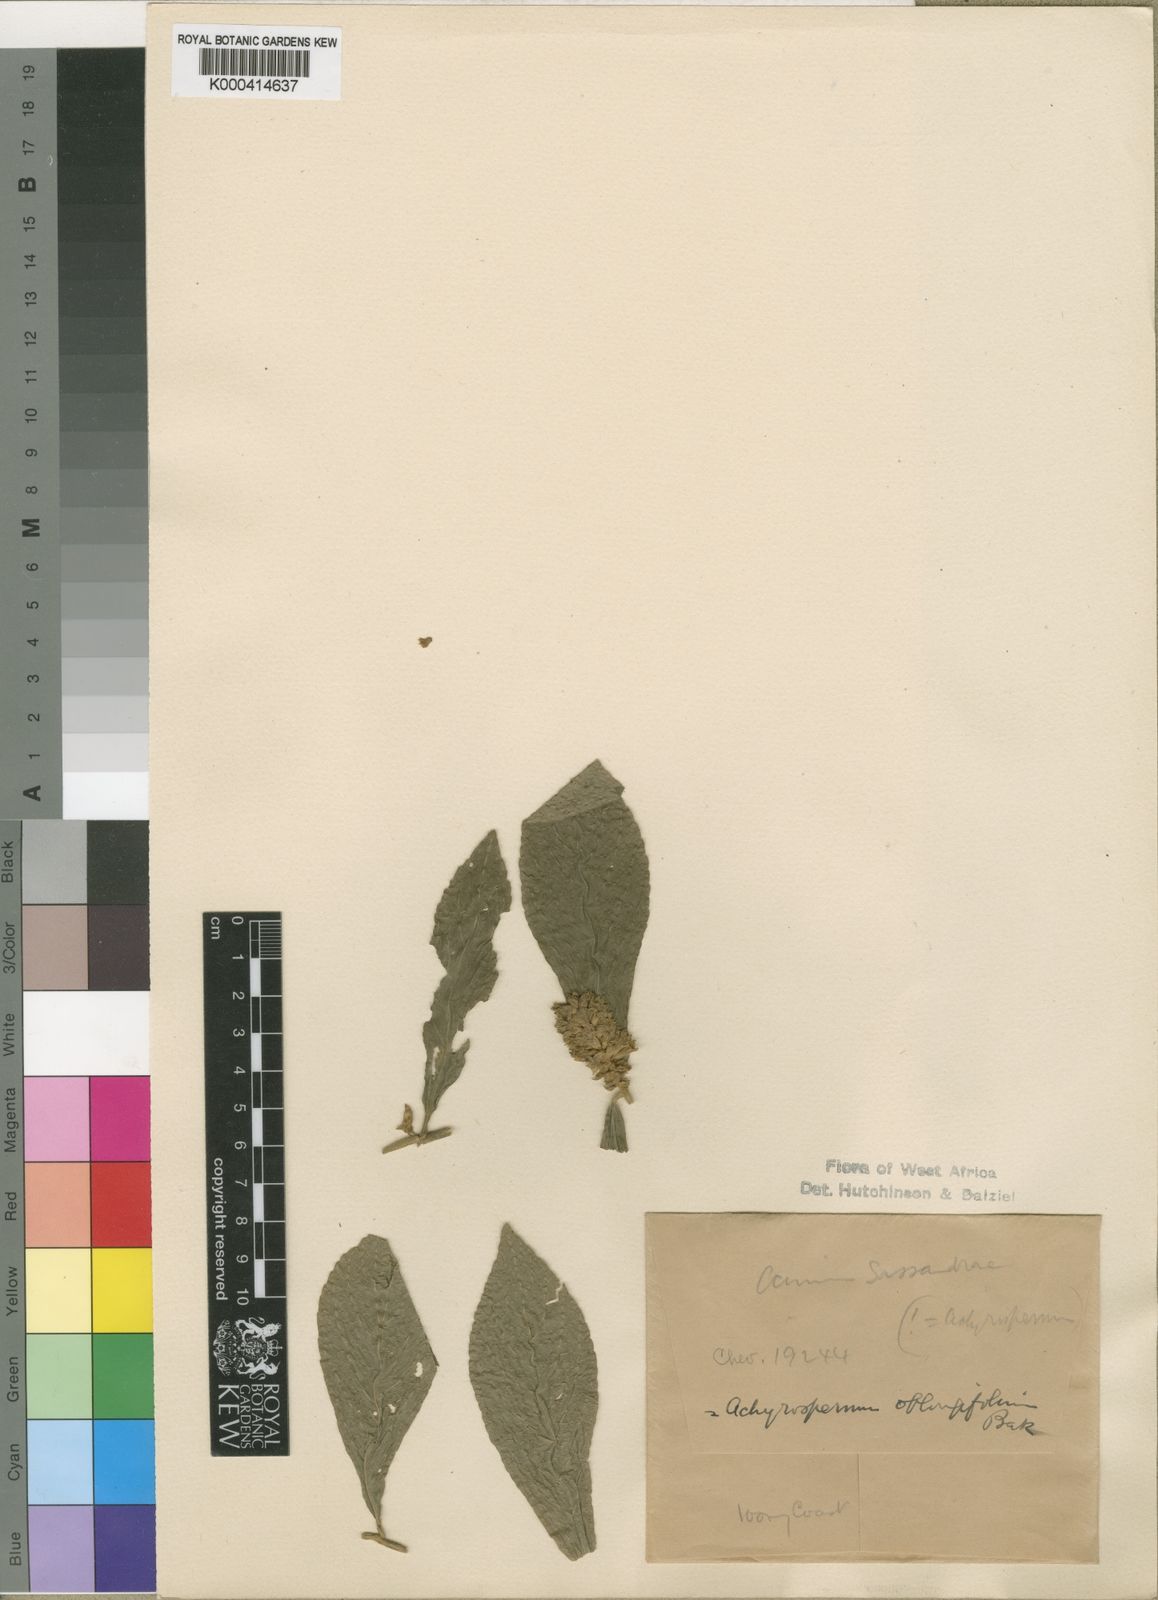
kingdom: Plantae
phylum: Tracheophyta
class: Magnoliopsida
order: Lamiales
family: Lamiaceae
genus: Achyrospermum
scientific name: Achyrospermum oblongifolium
